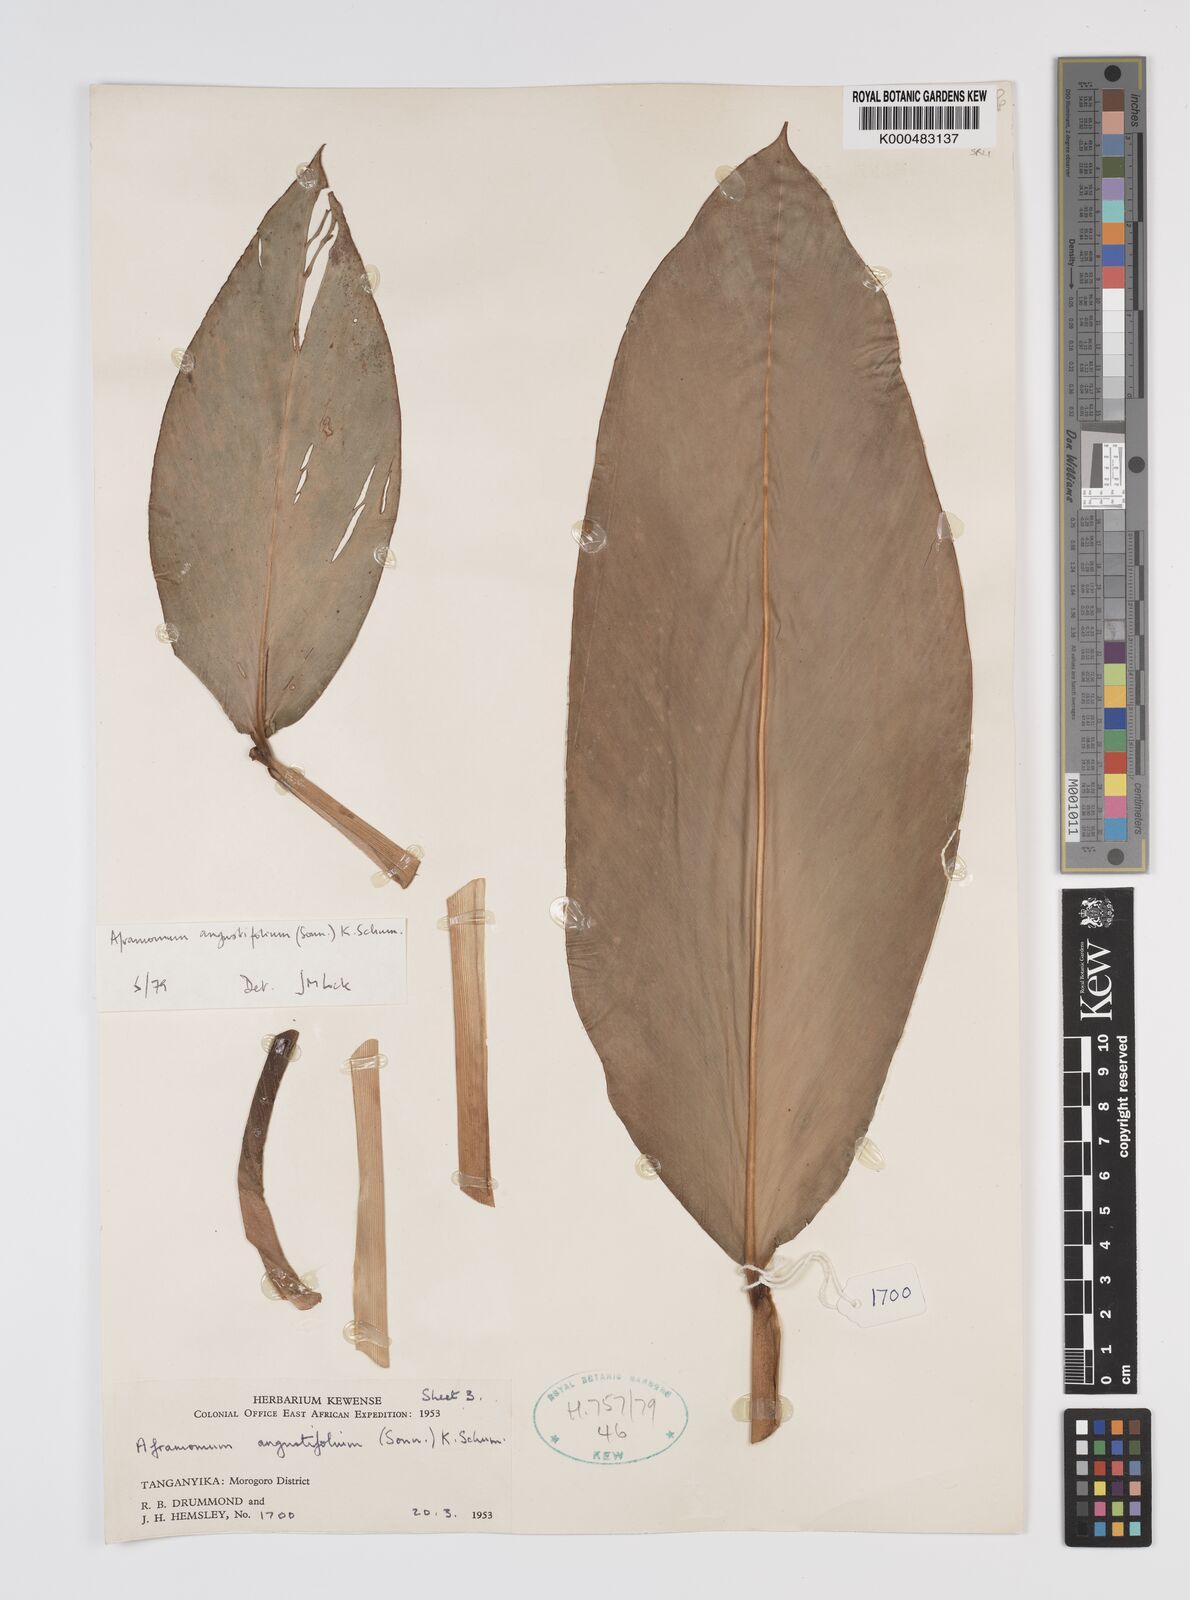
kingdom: Plantae
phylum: Tracheophyta
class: Liliopsida
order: Zingiberales
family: Zingiberaceae
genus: Aframomum
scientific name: Aframomum angustifolium
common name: Guinea grains
